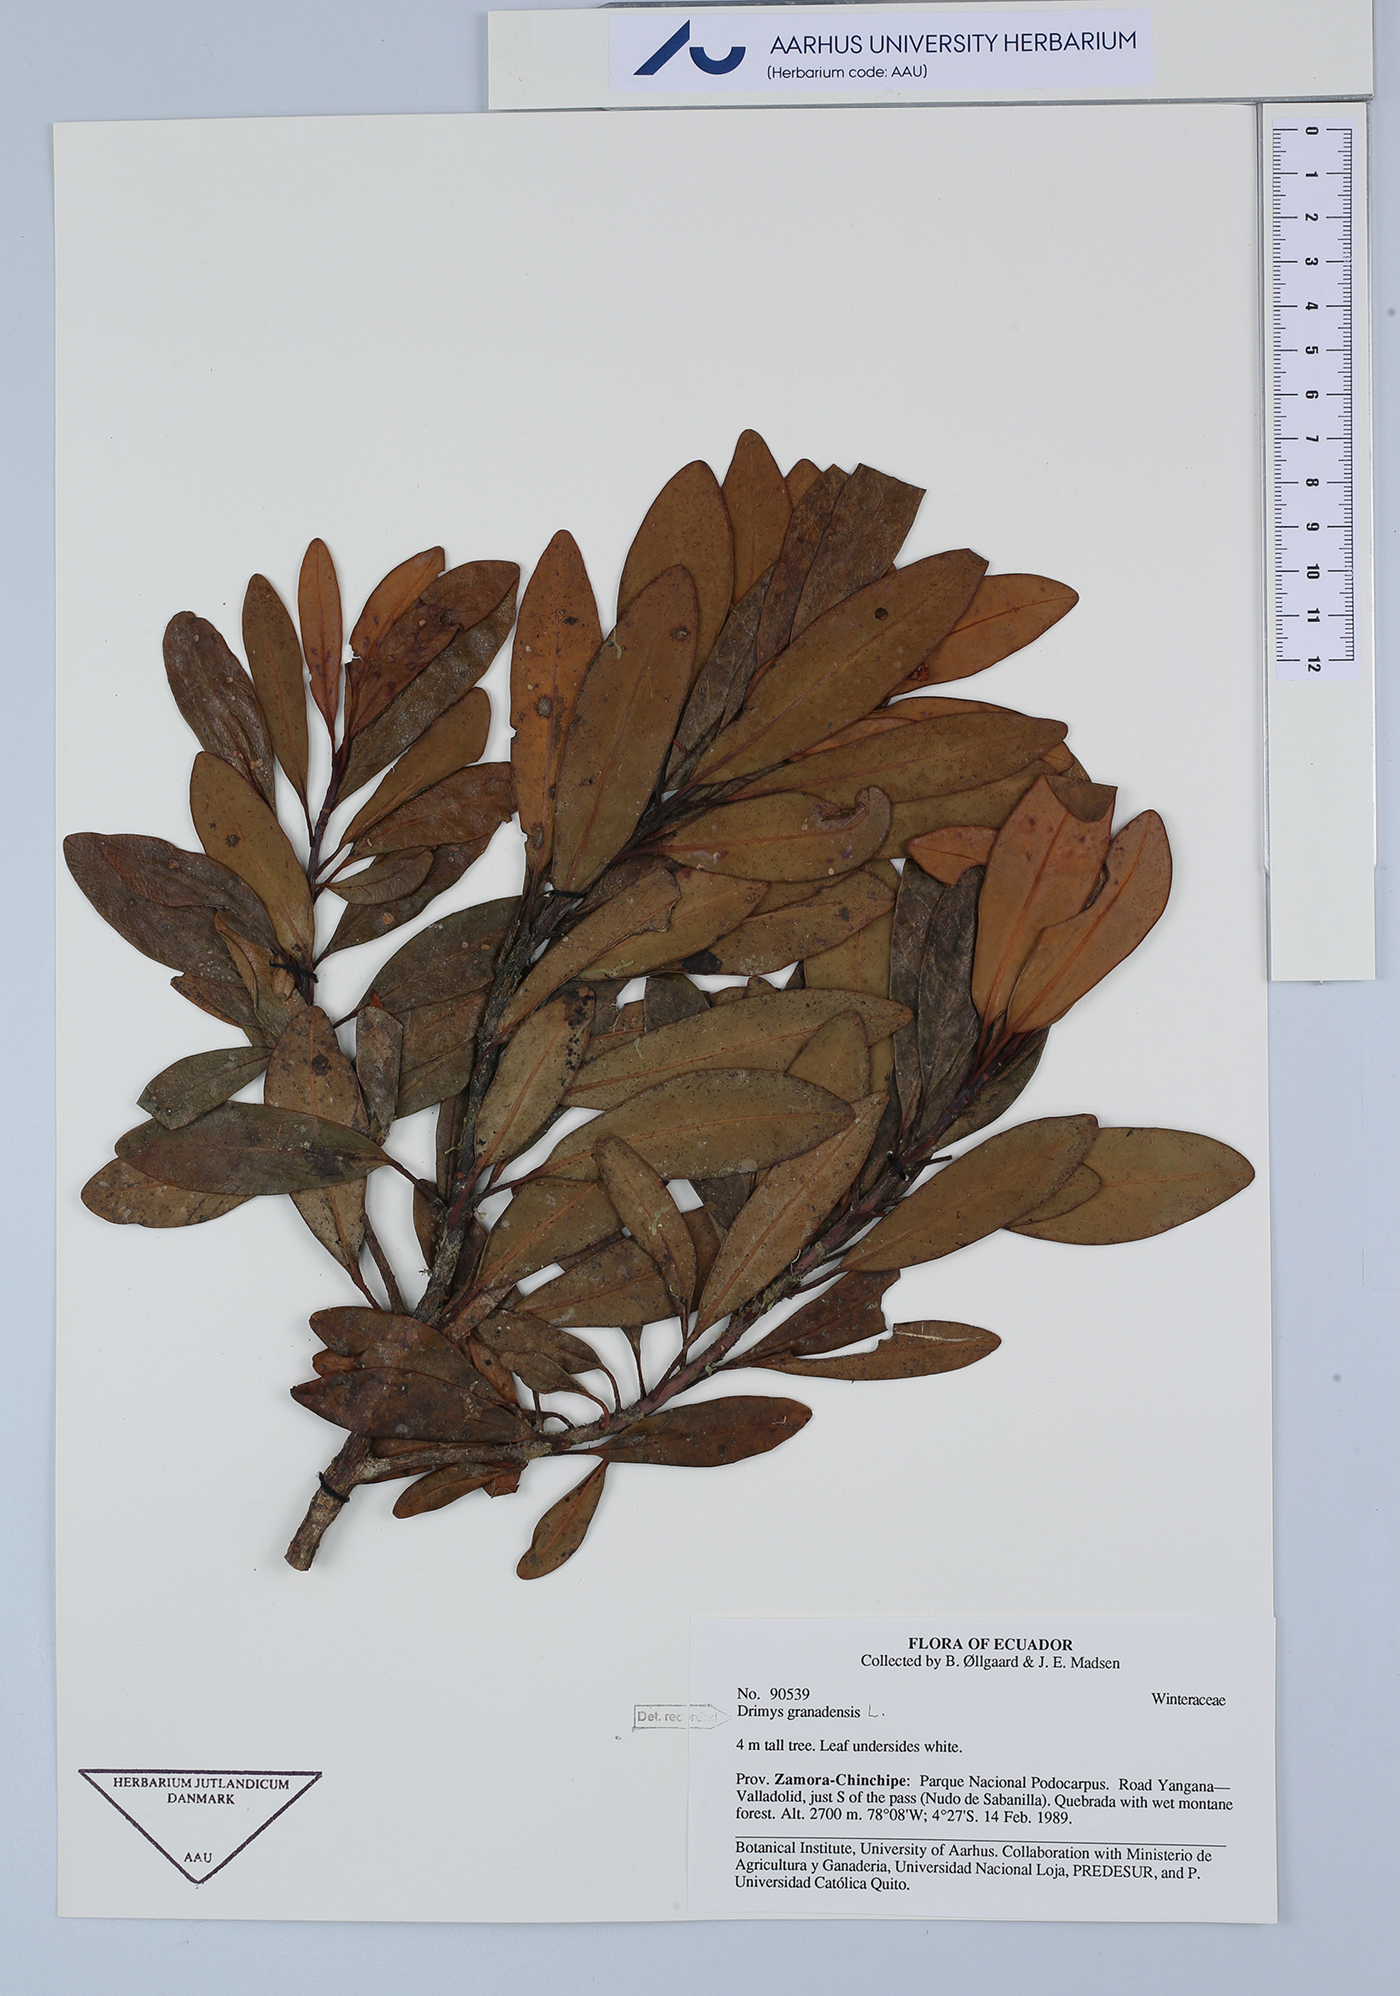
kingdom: Plantae
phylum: Tracheophyta
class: Magnoliopsida
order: Canellales
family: Winteraceae
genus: Drimys
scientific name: Drimys granadensis
